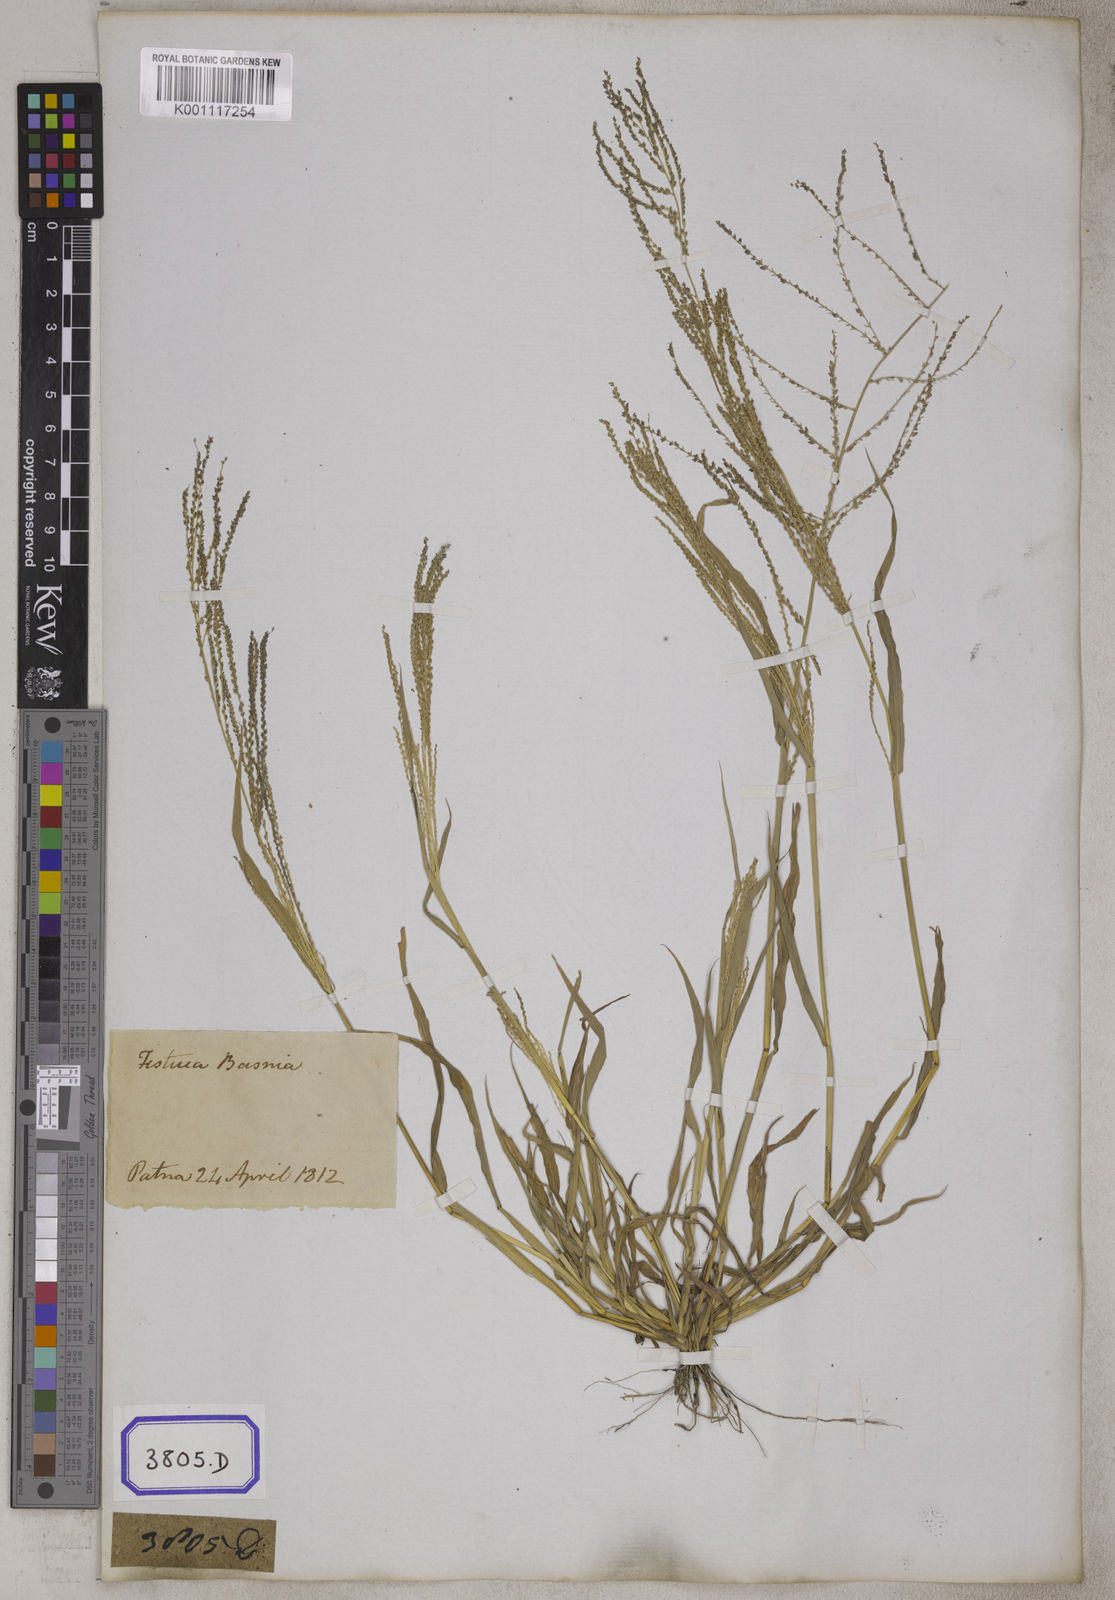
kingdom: Plantae
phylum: Tracheophyta
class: Liliopsida
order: Poales
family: Poaceae
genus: Leptochloa
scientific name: Leptochloa
